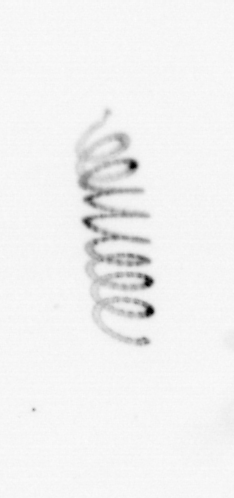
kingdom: Chromista
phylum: Ochrophyta
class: Bacillariophyceae
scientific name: Bacillariophyceae
